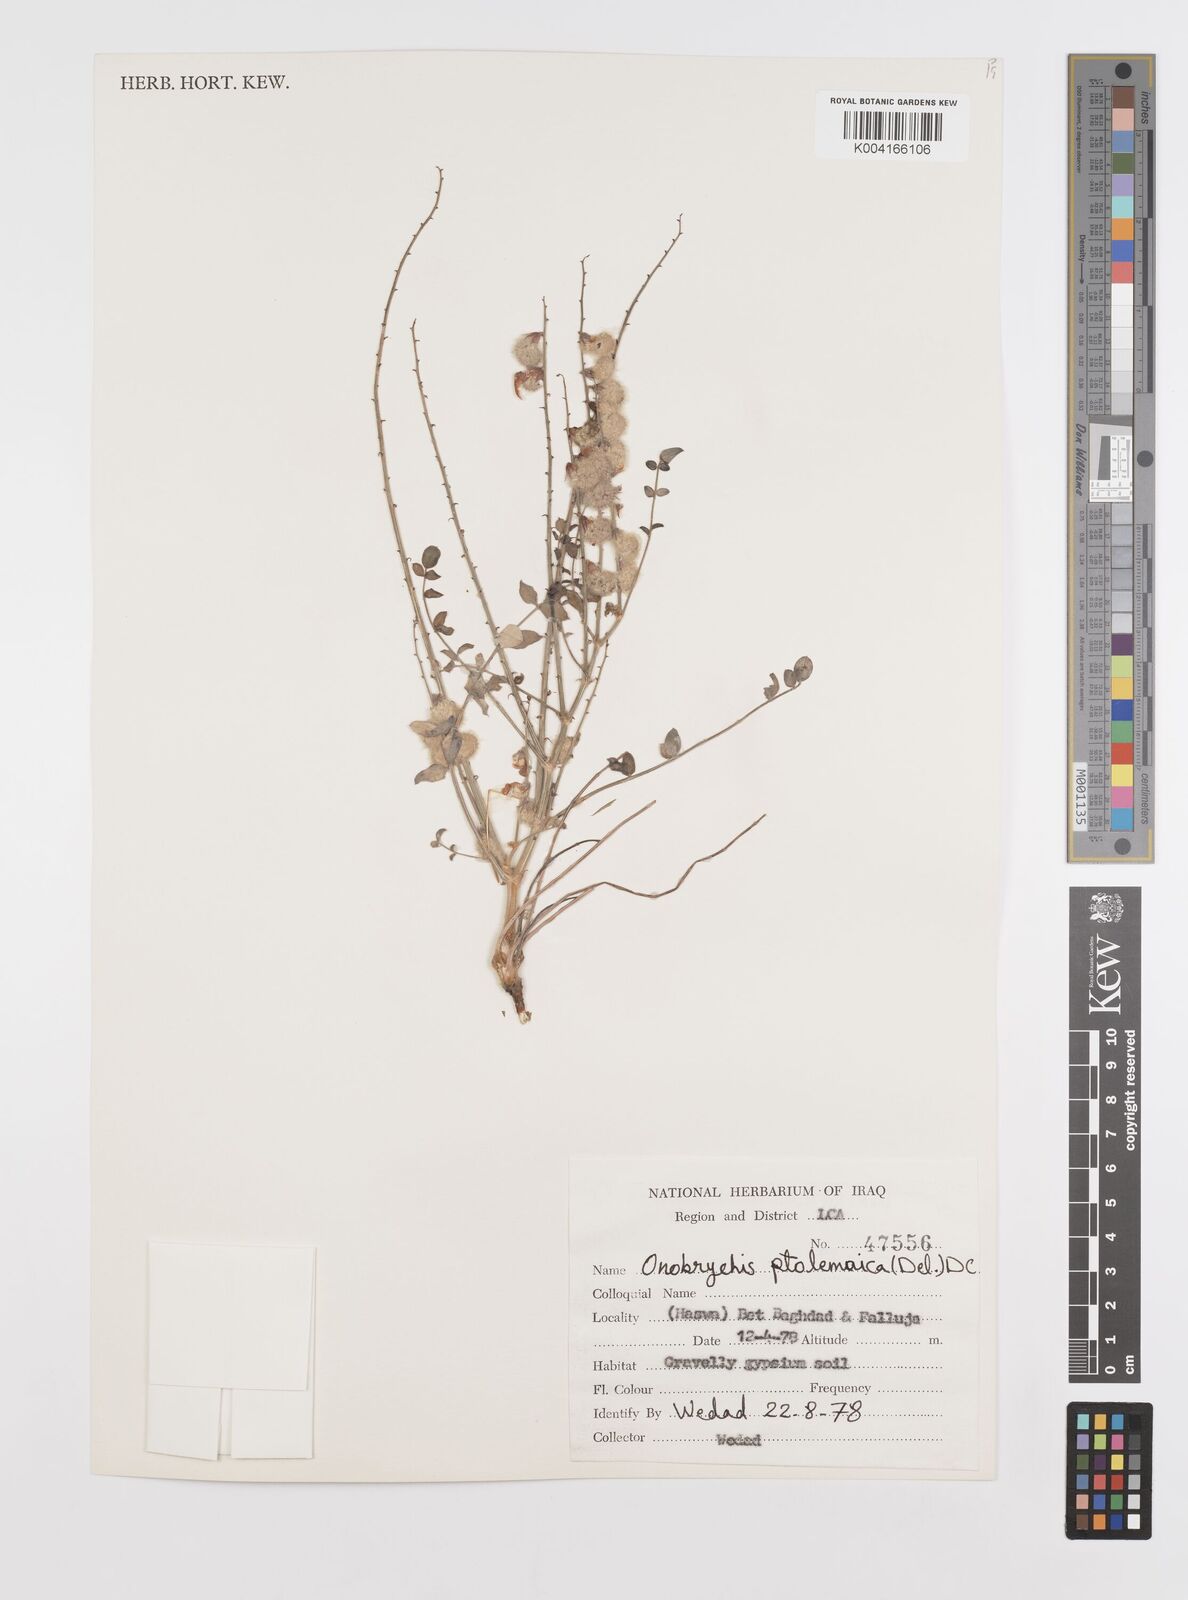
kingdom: Plantae
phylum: Tracheophyta
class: Magnoliopsida
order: Fabales
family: Fabaceae
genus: Onobrychis
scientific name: Onobrychis ptolemaica
